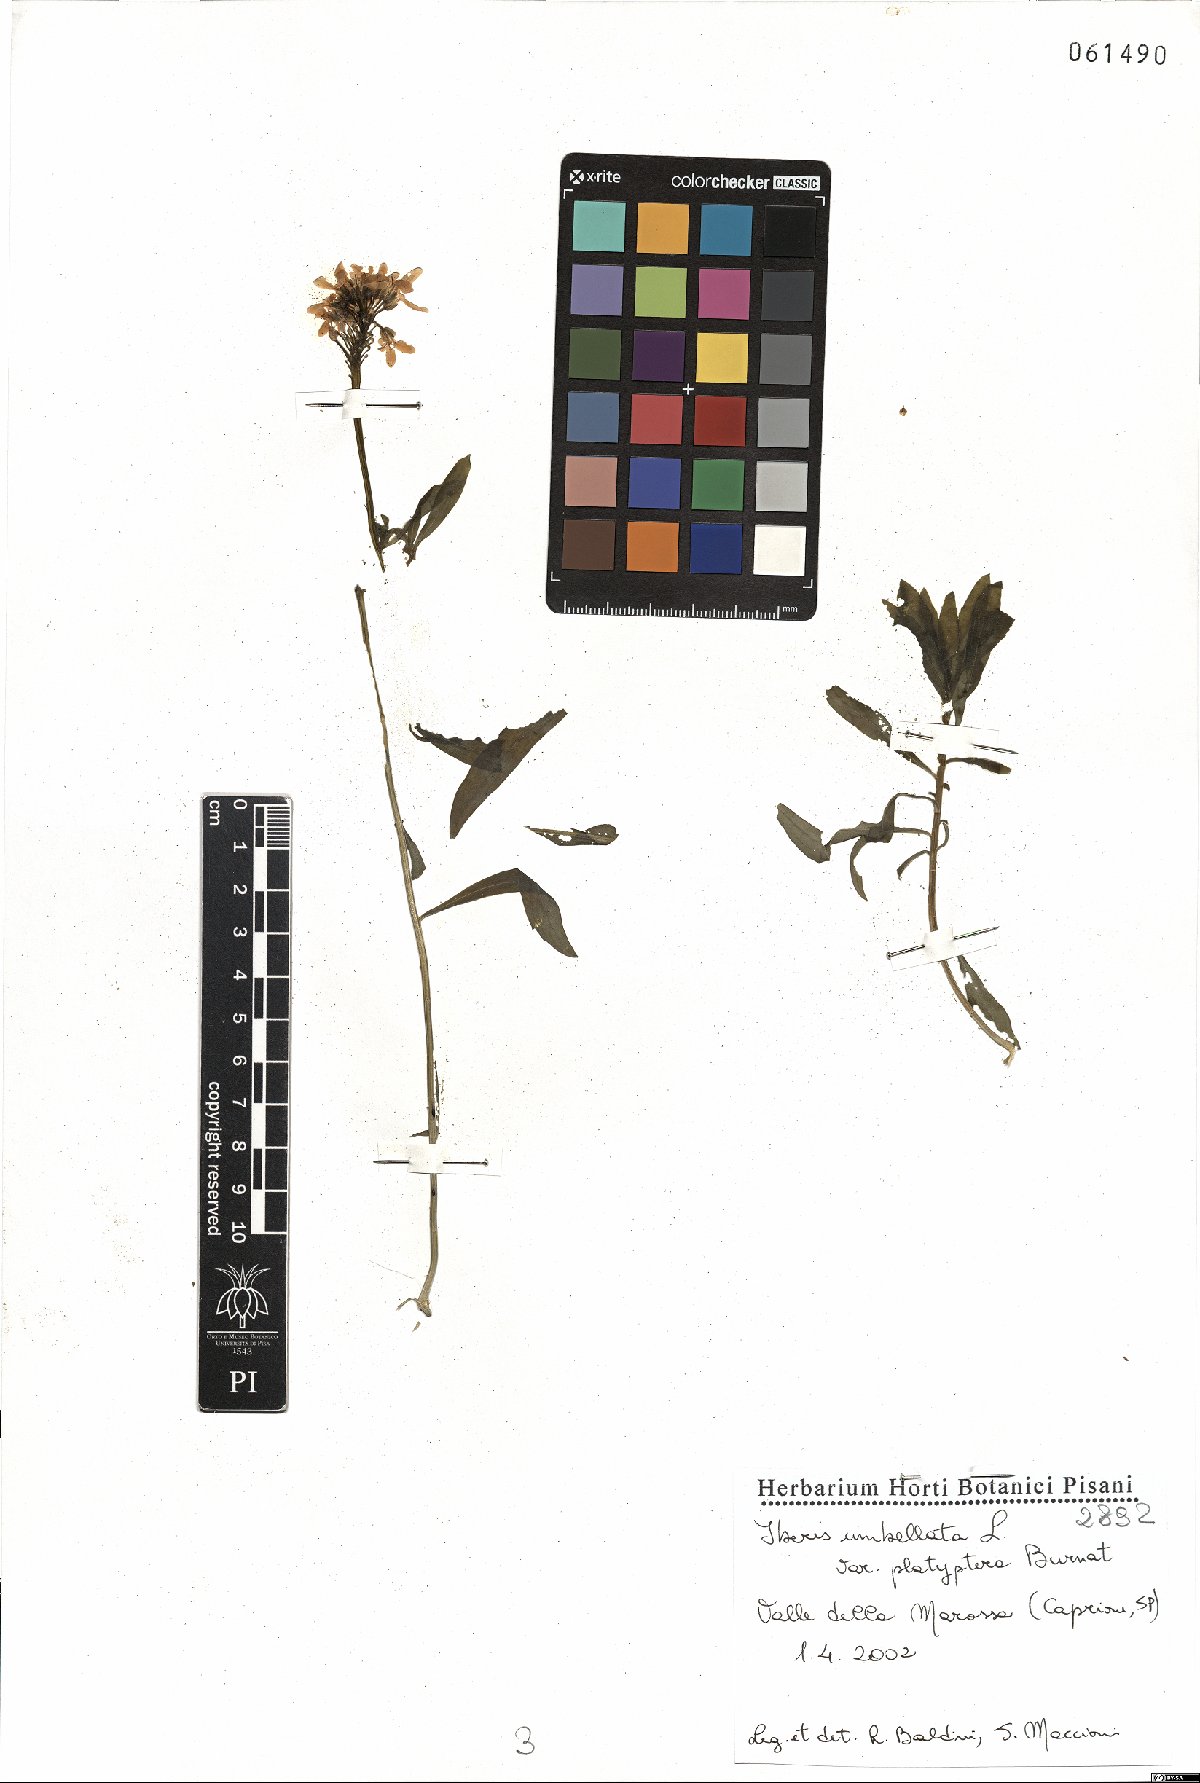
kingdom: Plantae
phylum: Tracheophyta
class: Magnoliopsida
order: Brassicales
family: Brassicaceae
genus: Iberis
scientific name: Iberis umbellata
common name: Globe candytuft
